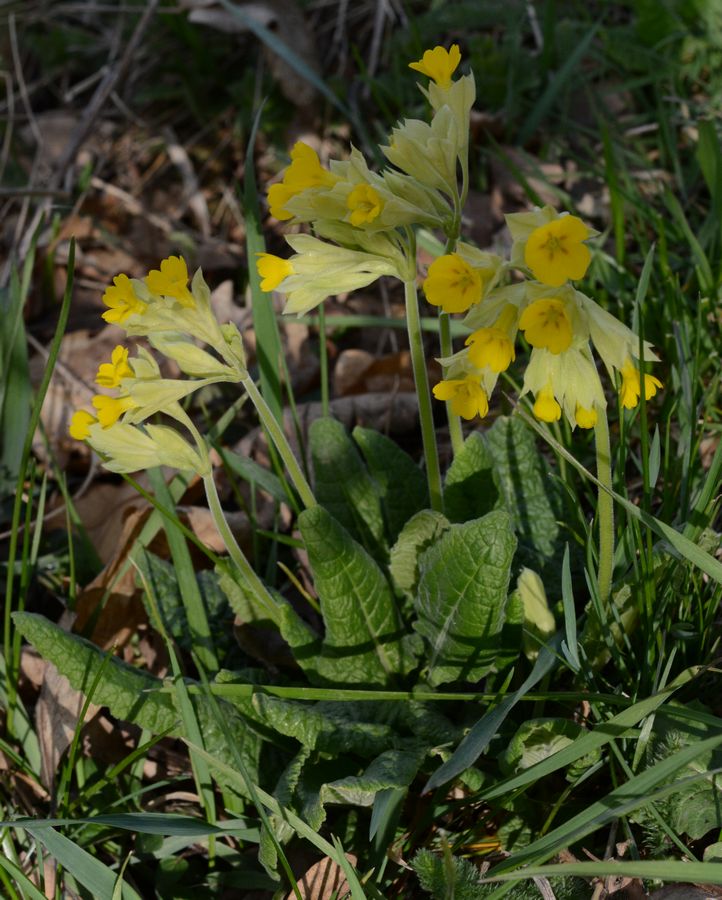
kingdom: Plantae
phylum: Tracheophyta
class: Magnoliopsida
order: Ericales
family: Primulaceae
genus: Primula
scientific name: Primula veris
